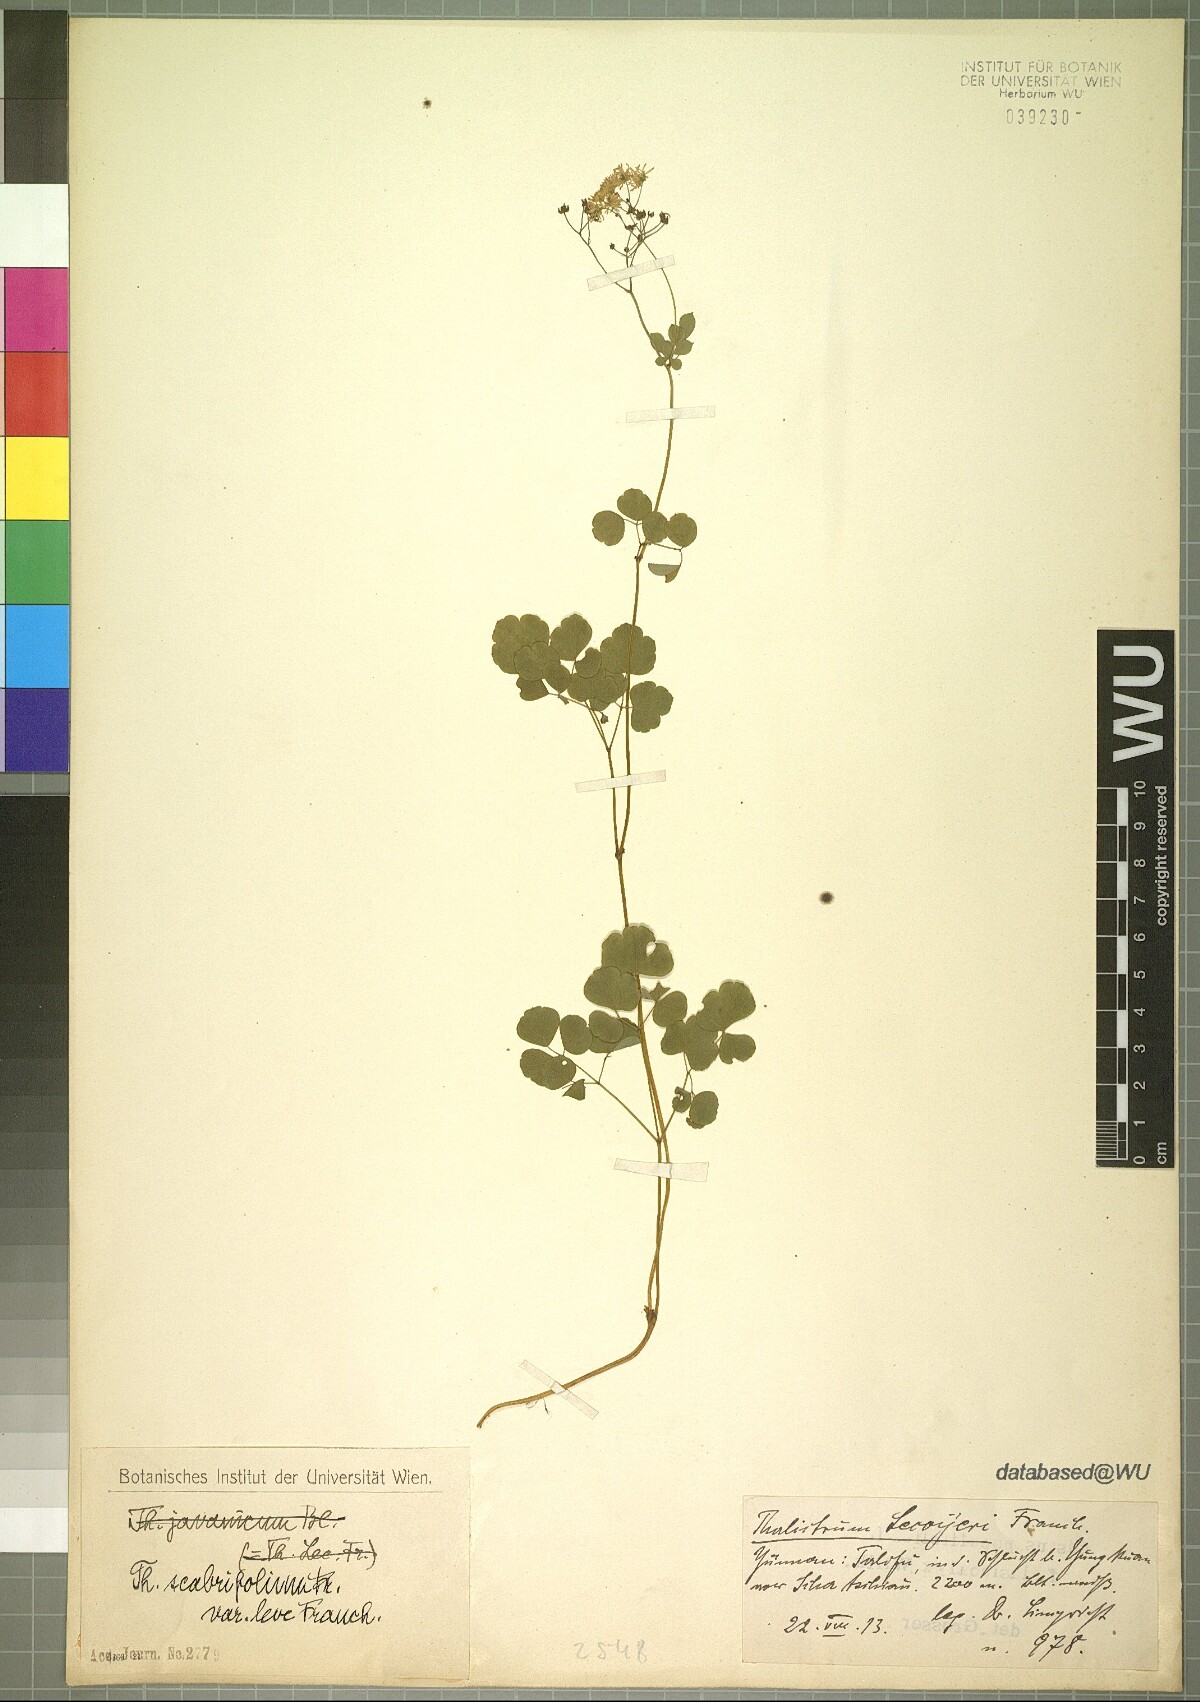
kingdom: Plantae
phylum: Tracheophyta
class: Magnoliopsida
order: Ranunculales
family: Ranunculaceae
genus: Thalictrum
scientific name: Thalictrum calcicolum
